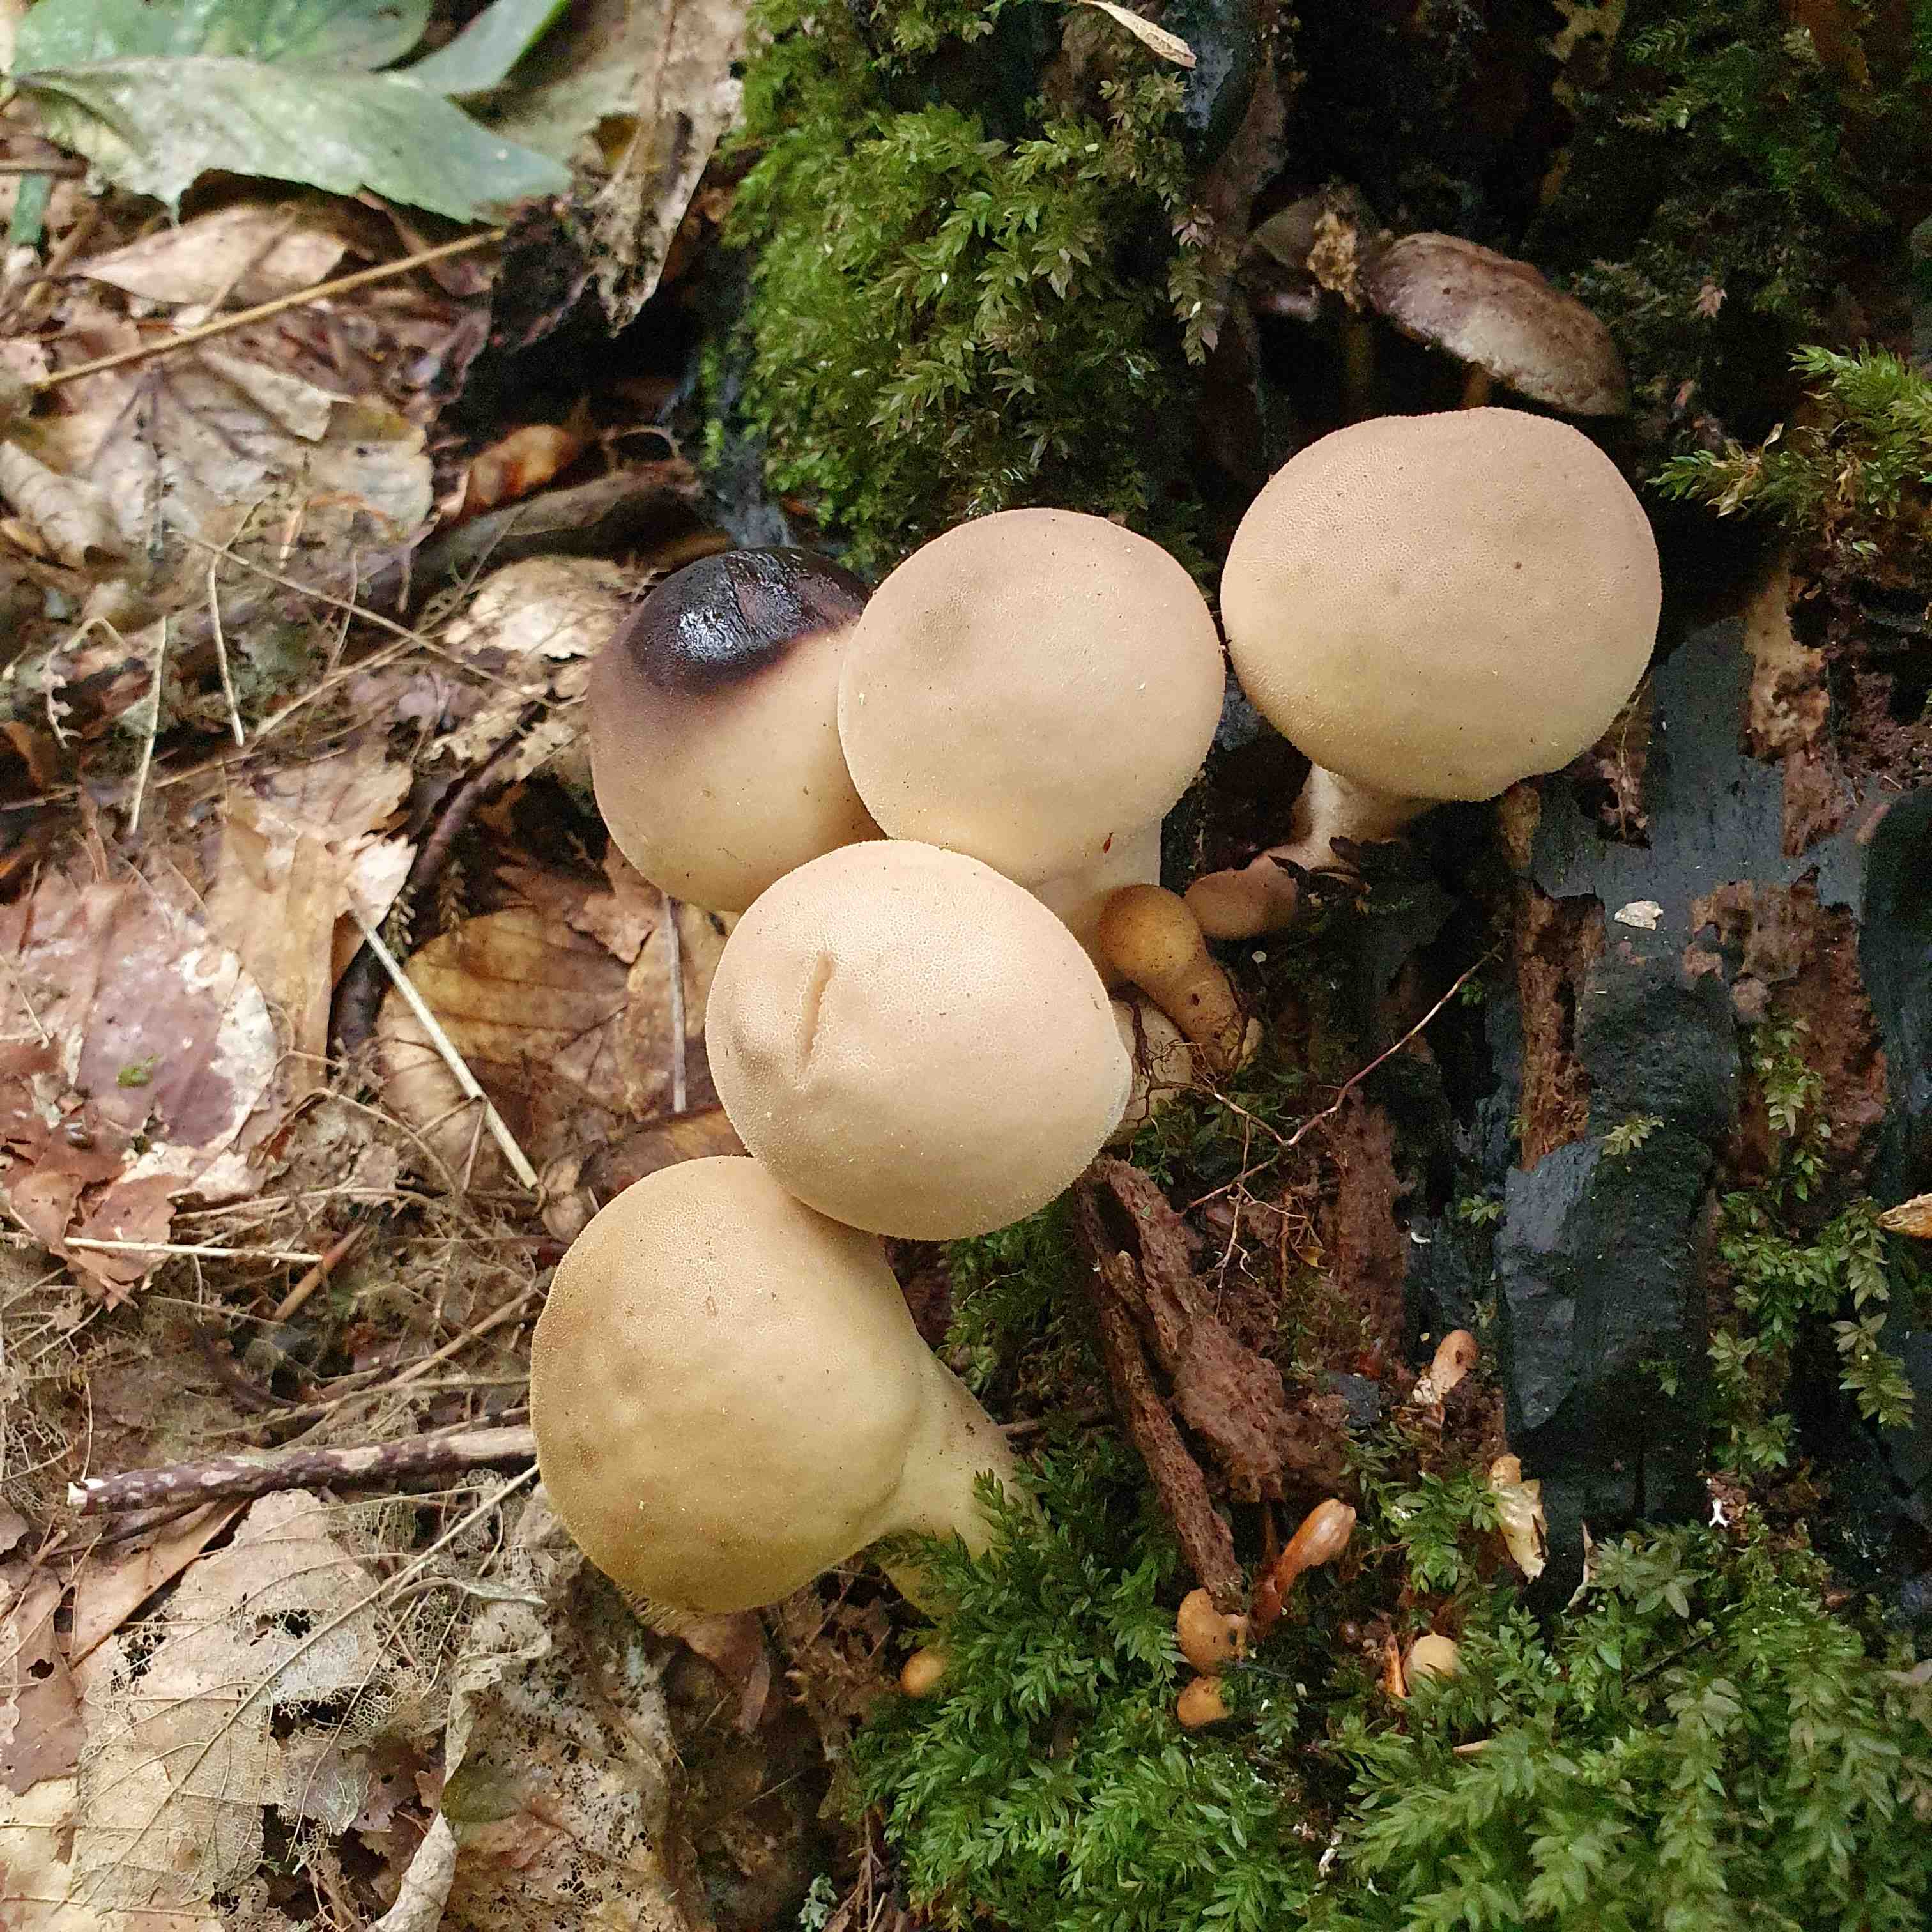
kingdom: Fungi
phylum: Basidiomycota
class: Agaricomycetes
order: Agaricales
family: Lycoperdaceae
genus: Apioperdon
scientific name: Apioperdon pyriforme
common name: pære-støvbold
